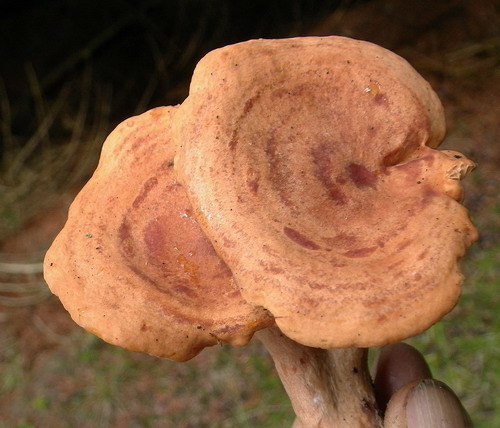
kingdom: Fungi
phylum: Basidiomycota
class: Agaricomycetes
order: Russulales
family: Russulaceae
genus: Lactarius
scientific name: Lactarius quietus
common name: ege-mælkehat
